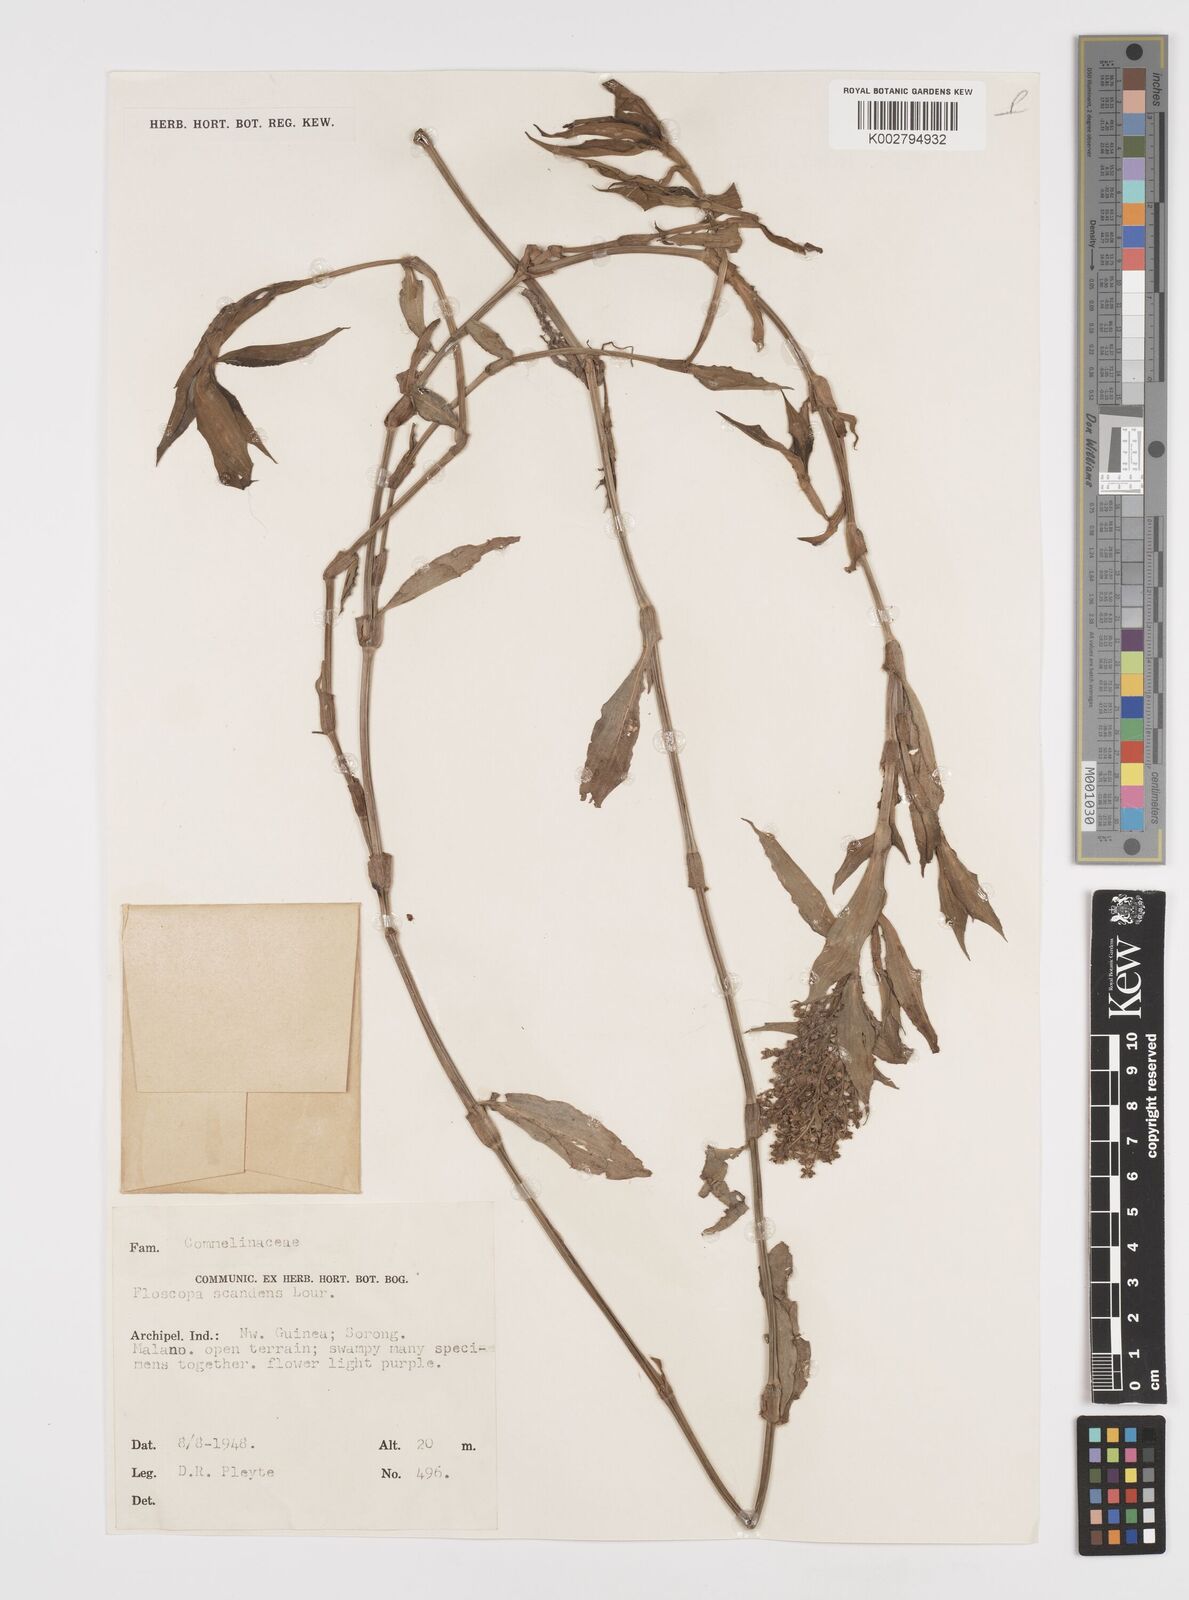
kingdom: Plantae
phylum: Tracheophyta
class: Liliopsida
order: Commelinales
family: Commelinaceae
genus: Floscopa
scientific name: Floscopa scandens
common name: Climbing flower cup
